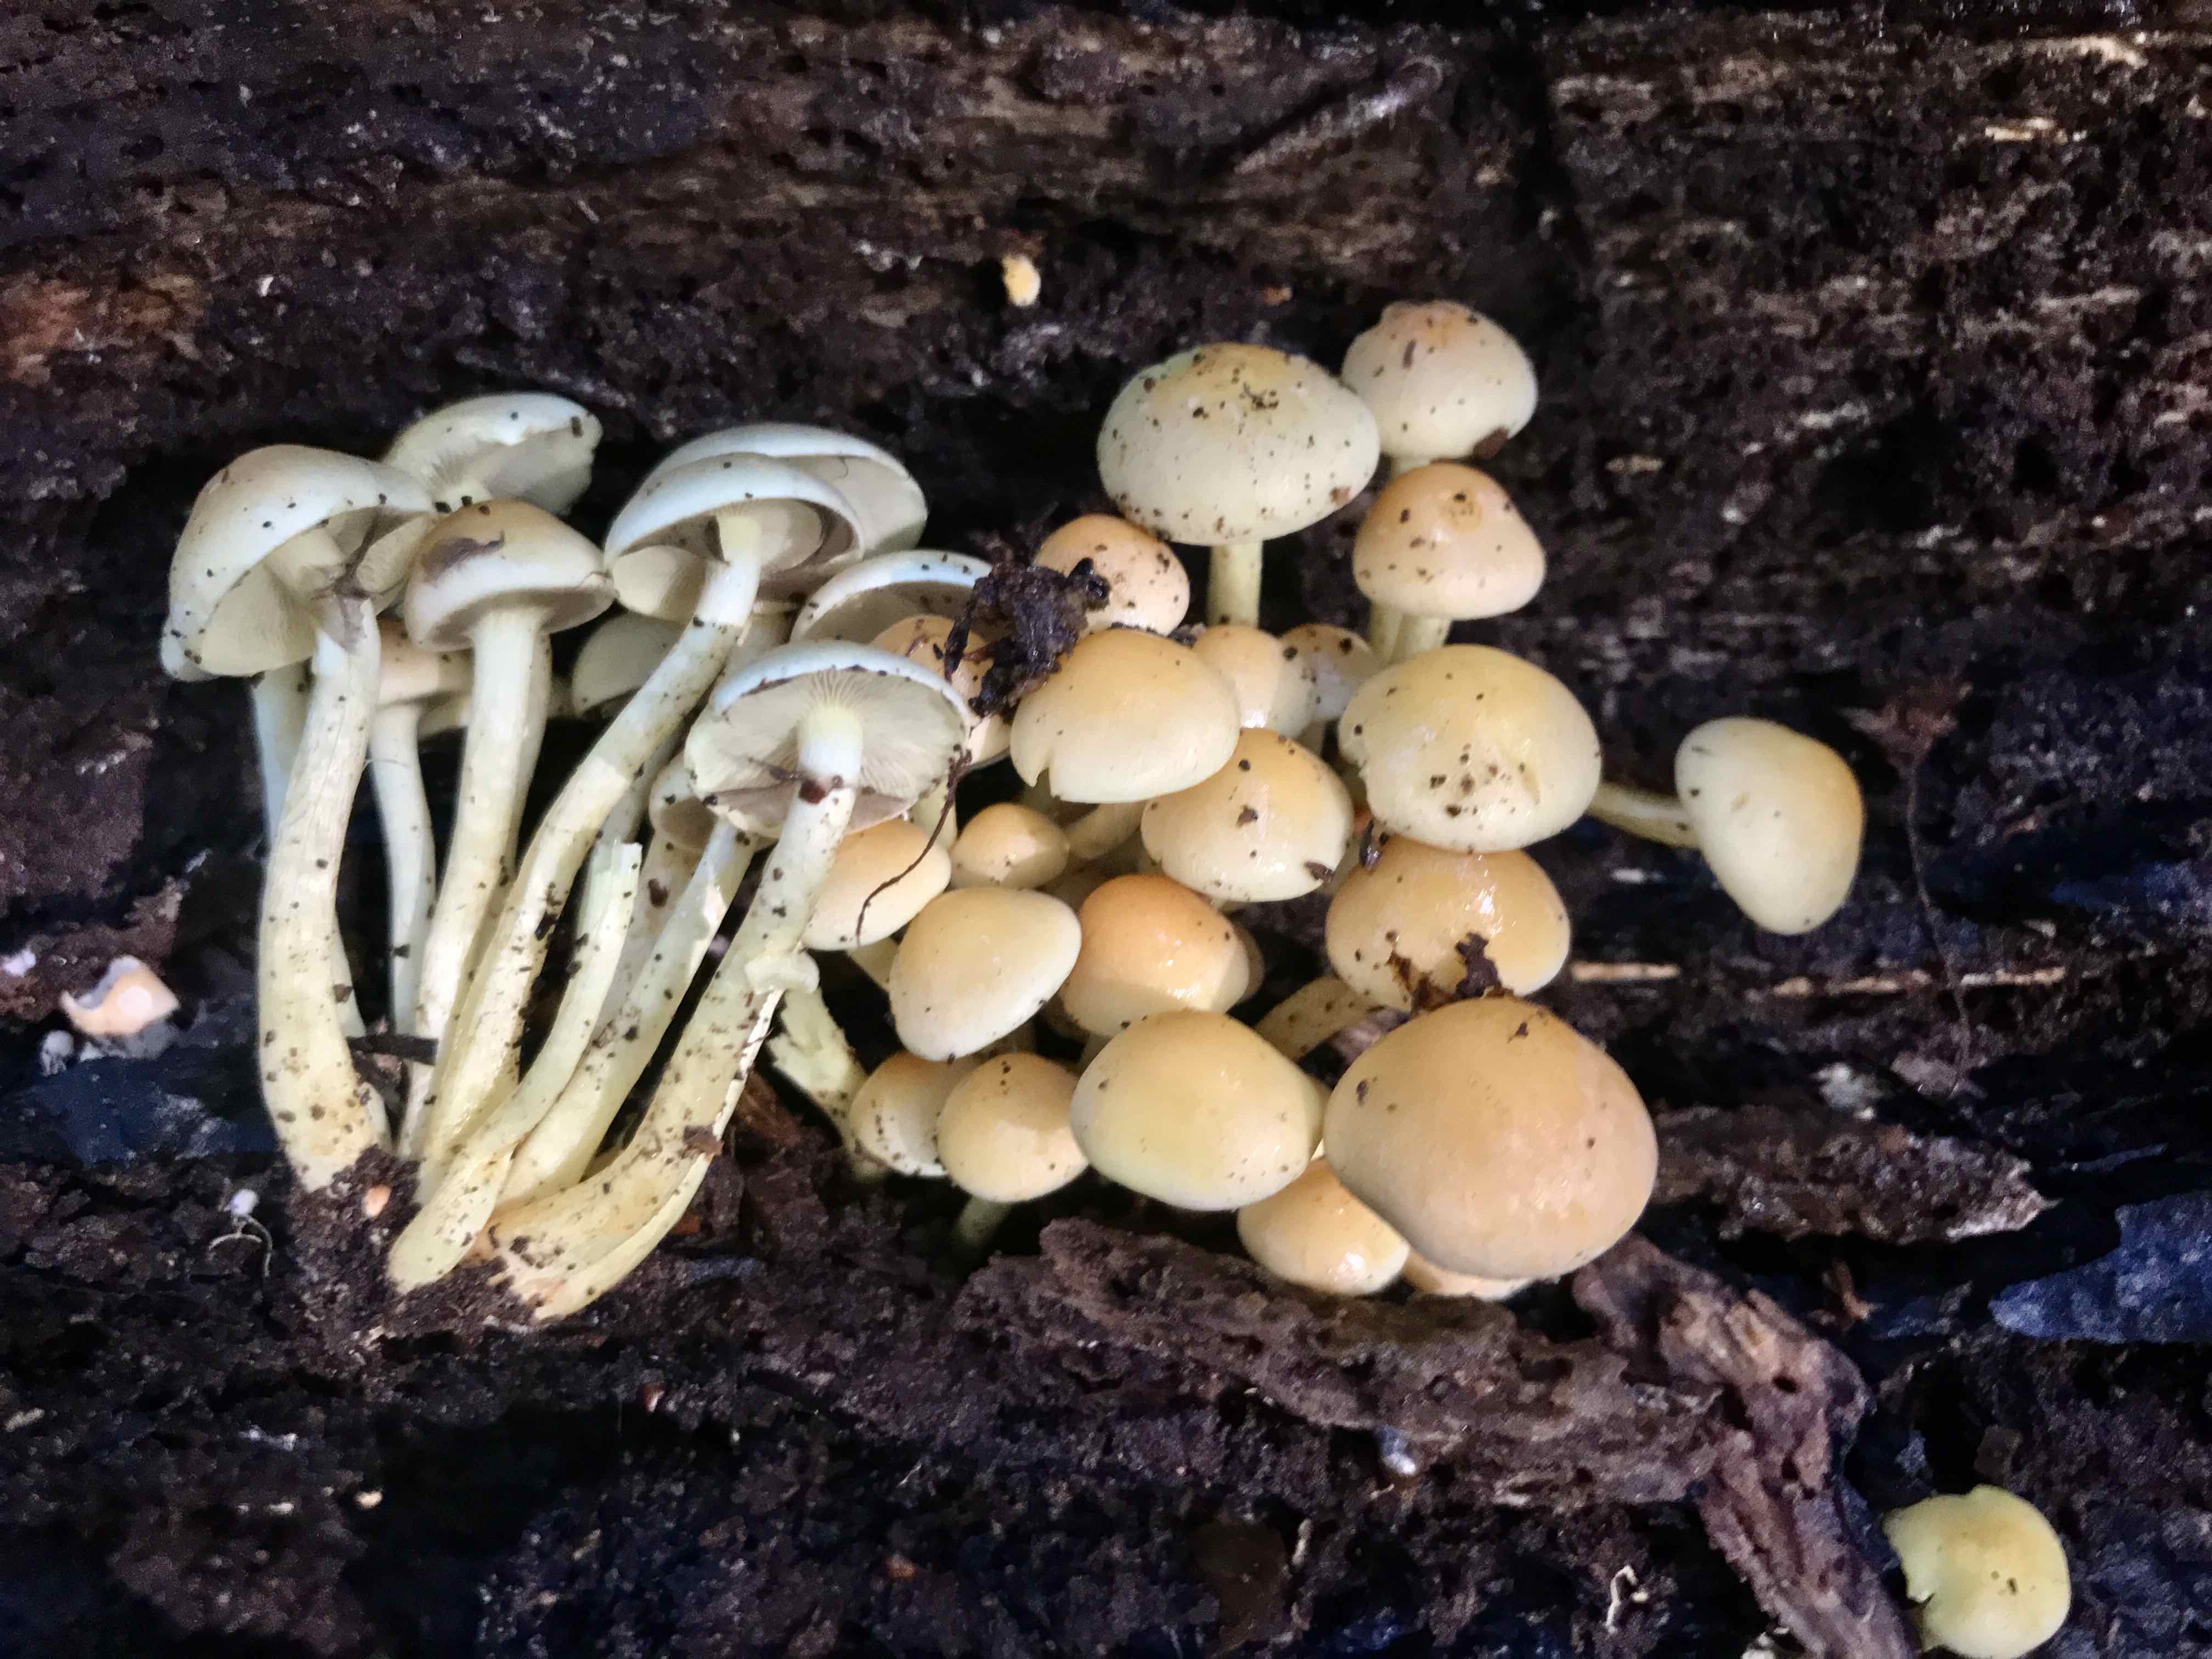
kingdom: Fungi
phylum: Basidiomycota
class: Agaricomycetes
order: Agaricales
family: Strophariaceae
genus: Hypholoma
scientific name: Hypholoma fasciculare
